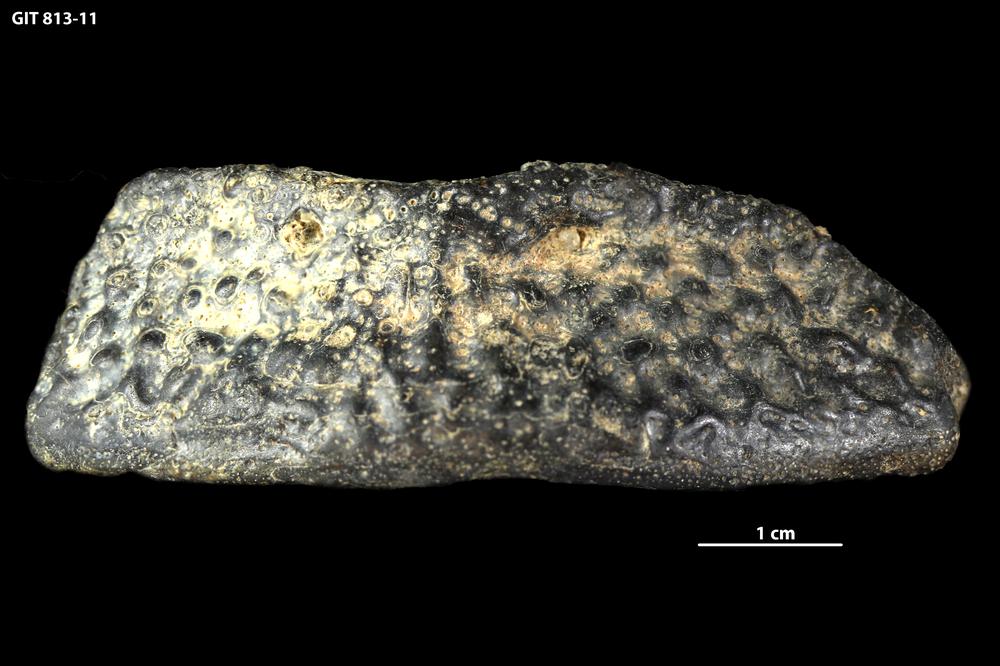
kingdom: Animalia
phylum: Chordata
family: Actinolepididae
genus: Actinolepis
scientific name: Actinolepis
